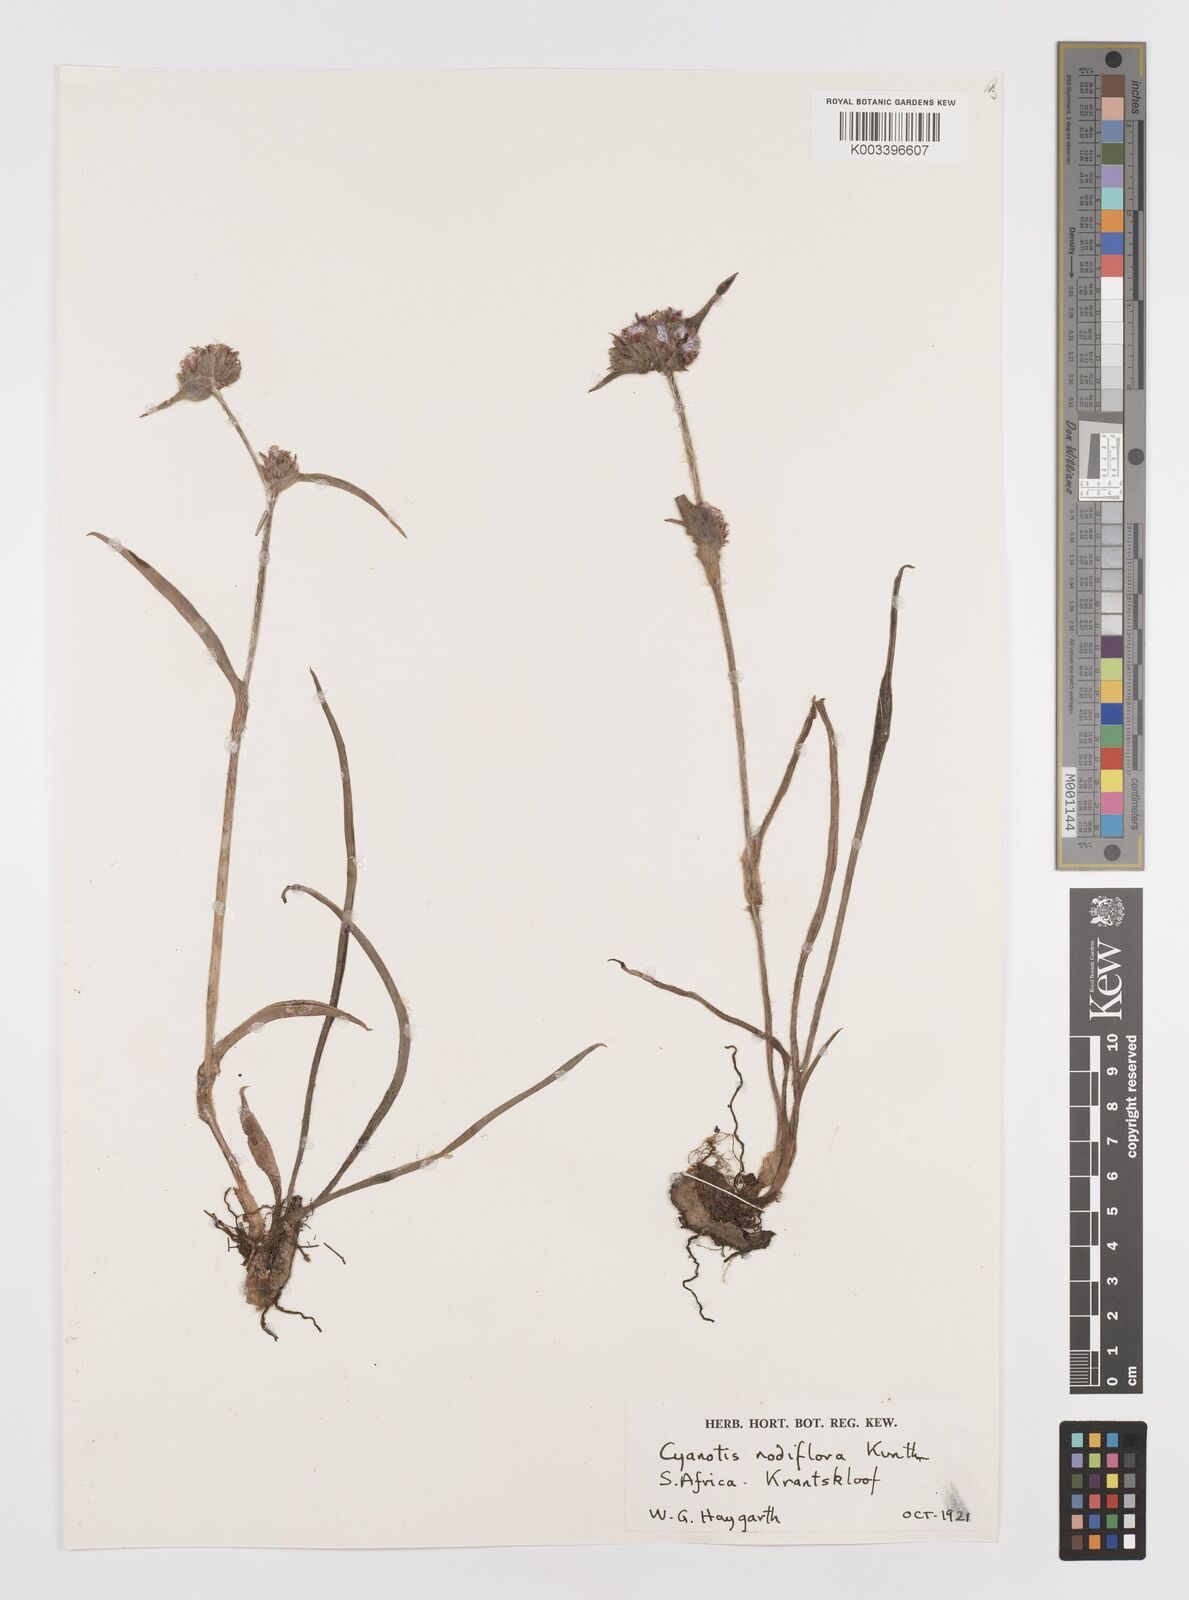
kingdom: Plantae
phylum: Tracheophyta
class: Liliopsida
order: Commelinales
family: Commelinaceae
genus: Cyanotis
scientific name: Cyanotis speciosa
